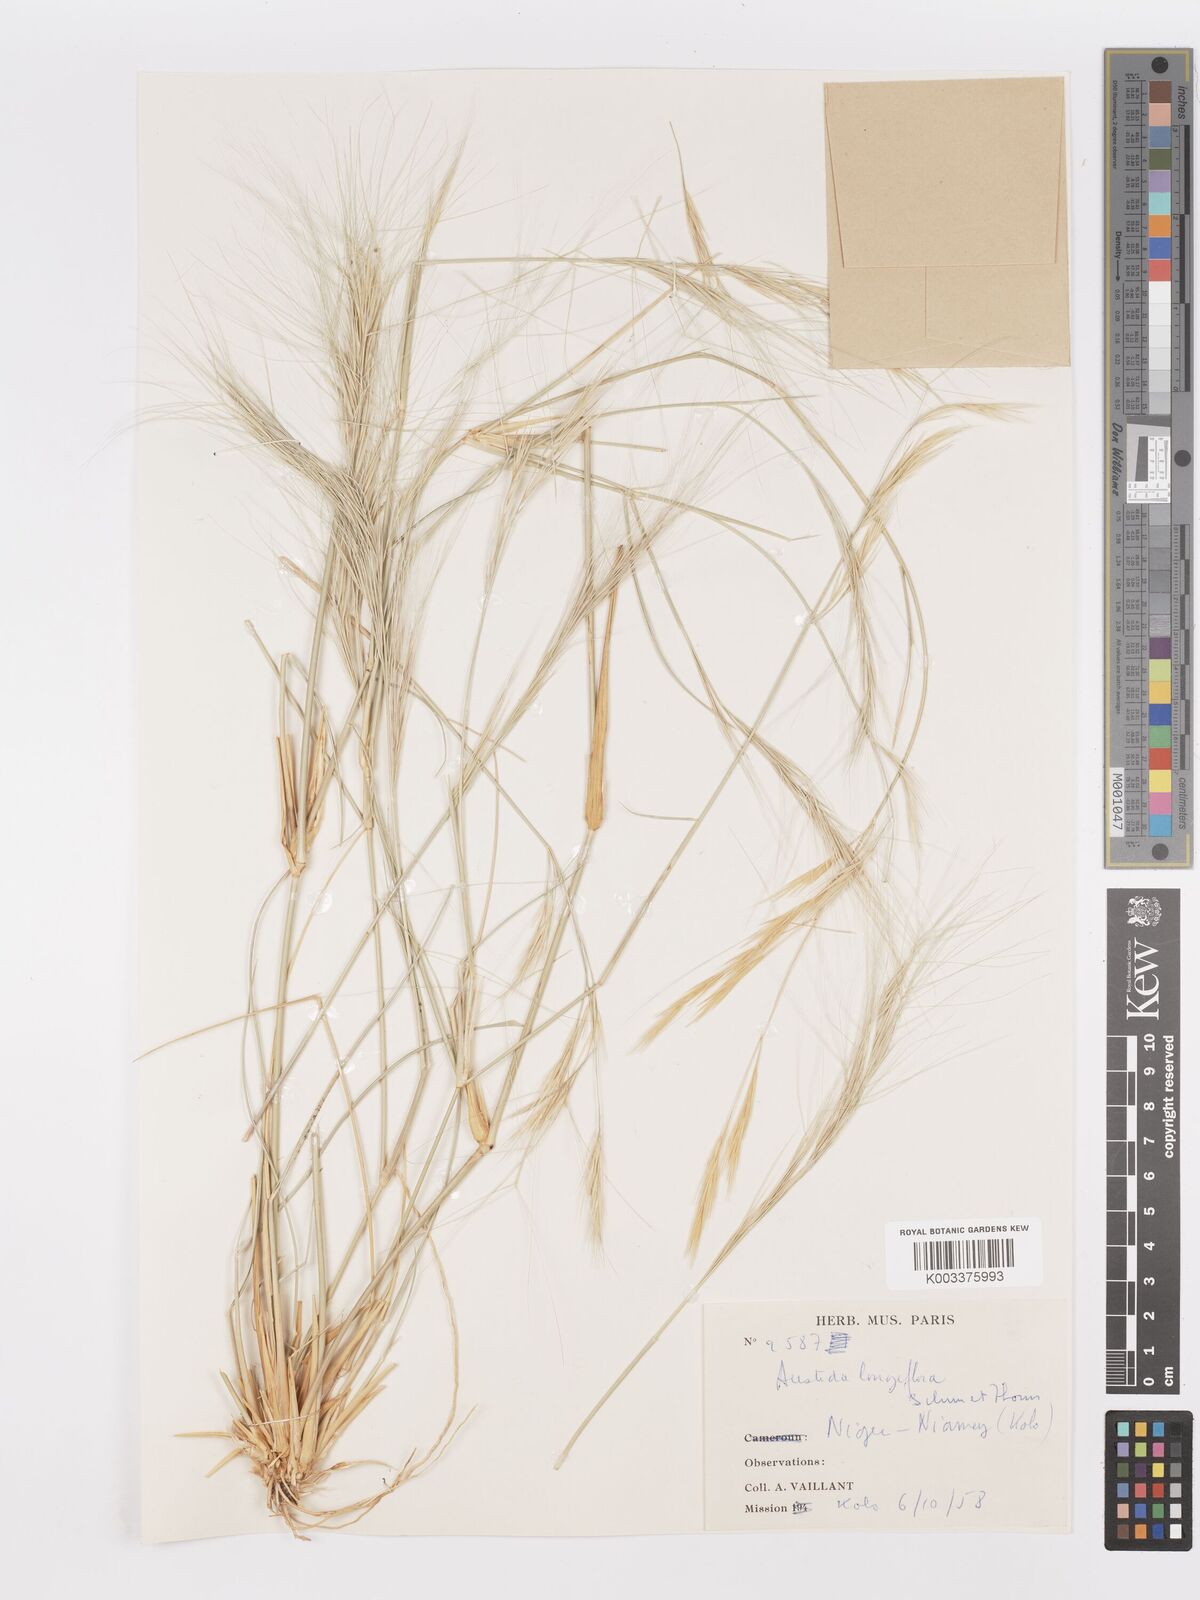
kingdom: Plantae
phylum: Tracheophyta
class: Liliopsida
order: Poales
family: Poaceae
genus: Aristida
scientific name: Aristida sieberiana
